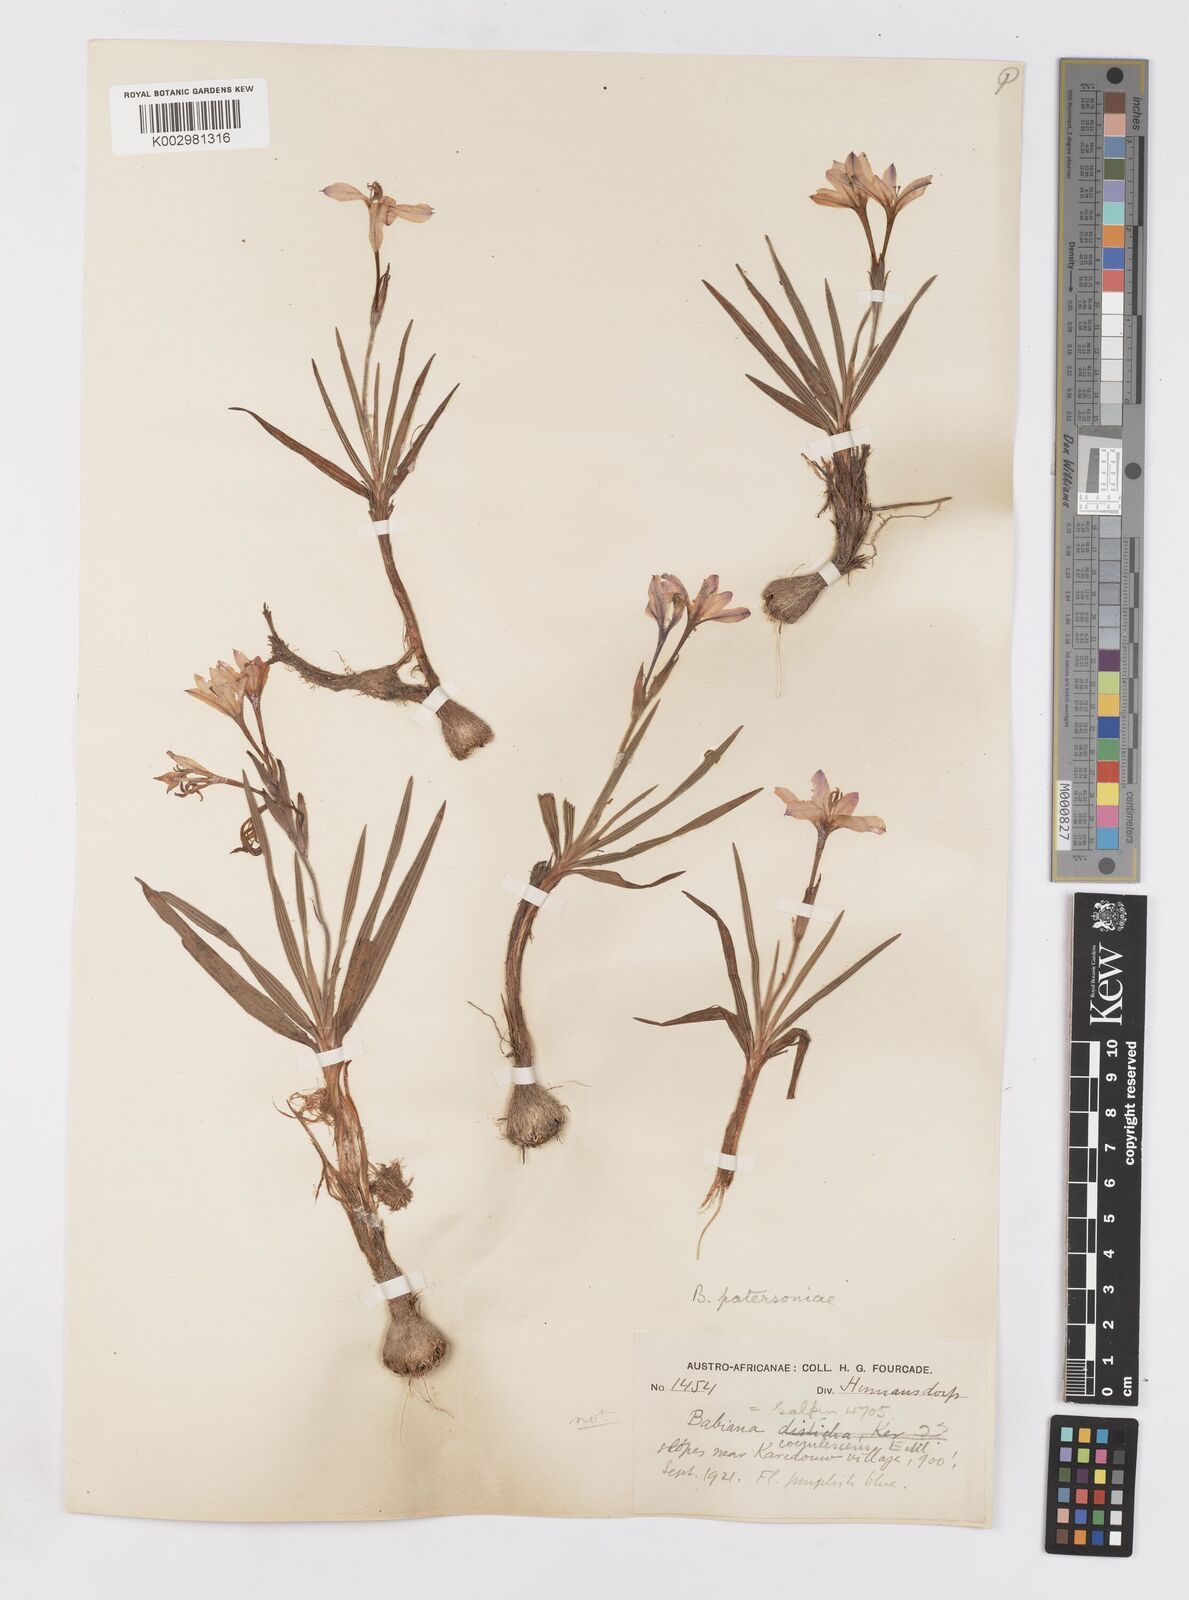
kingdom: Plantae
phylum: Tracheophyta
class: Liliopsida
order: Asparagales
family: Iridaceae
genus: Babiana
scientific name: Babiana patersoniae
